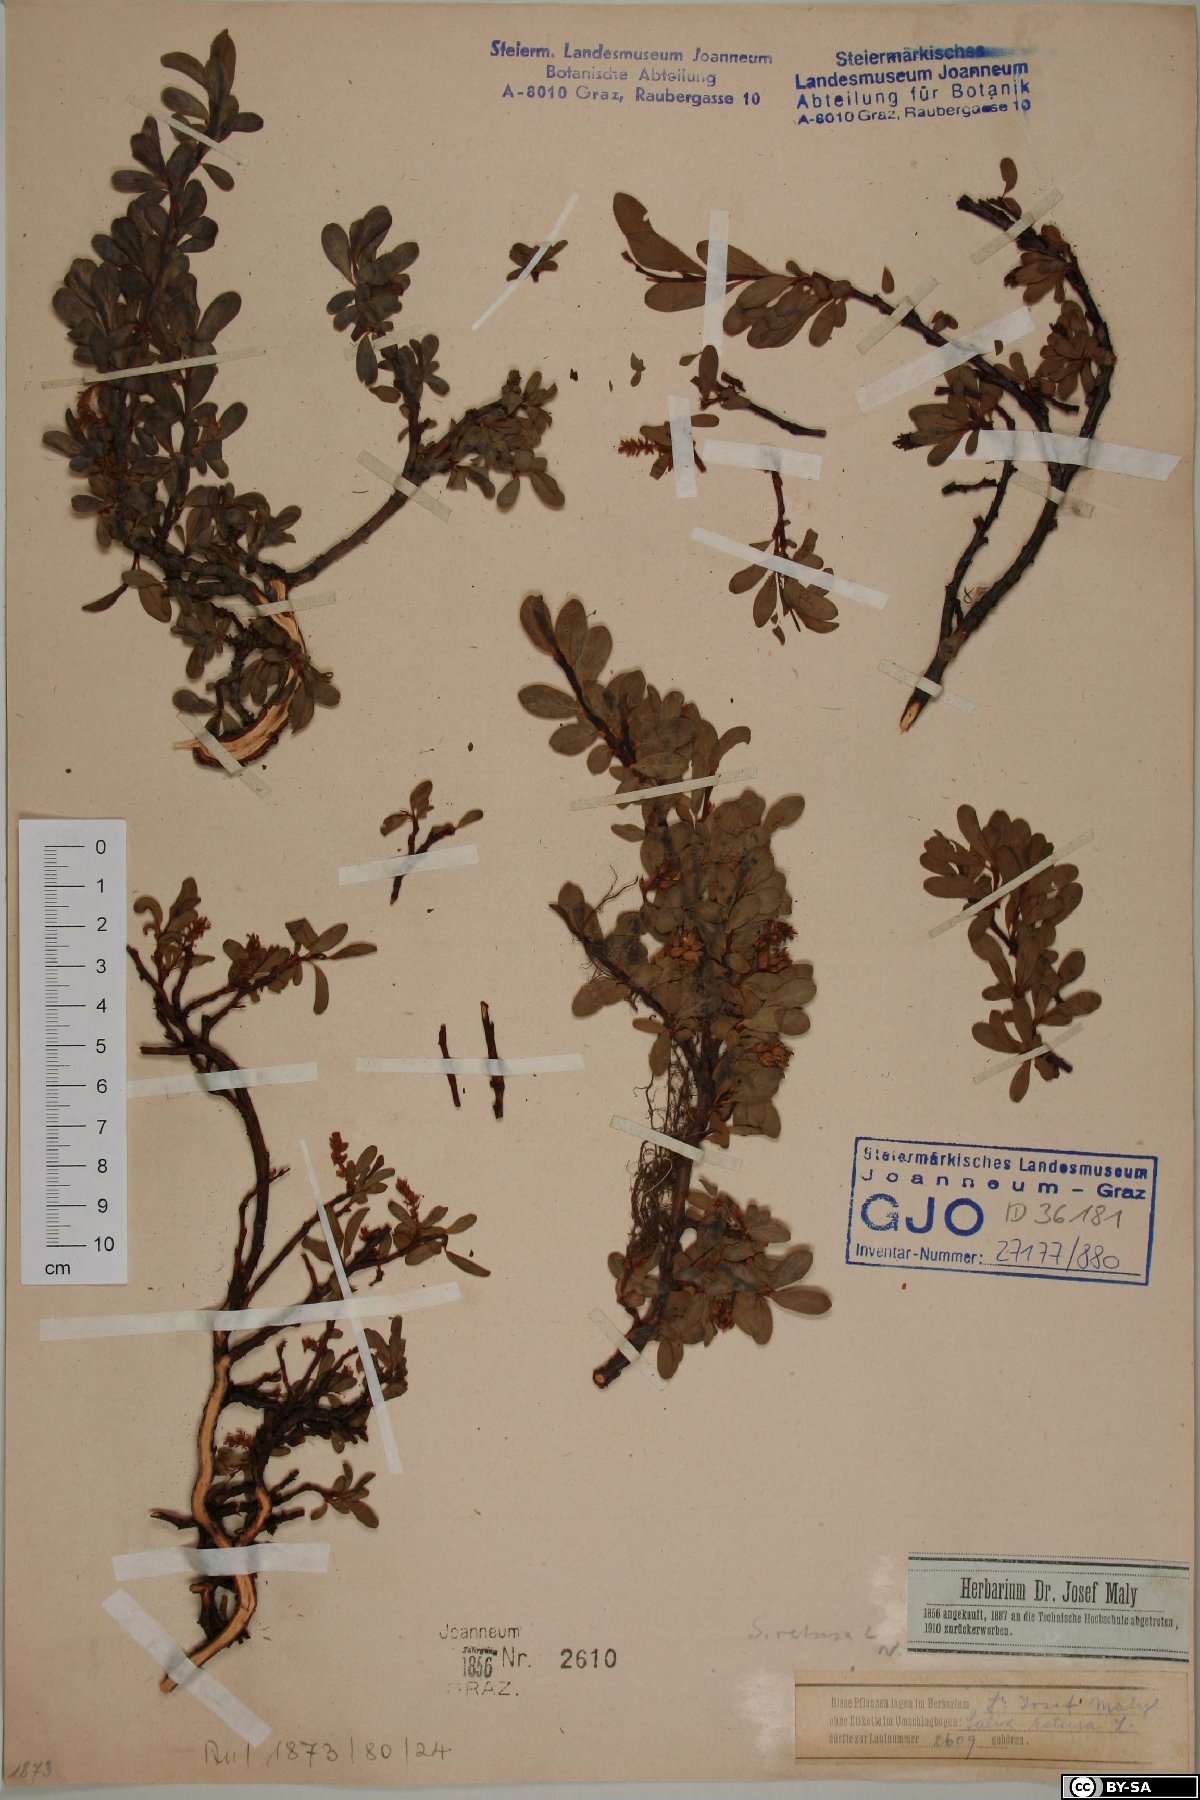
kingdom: Plantae
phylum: Tracheophyta
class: Magnoliopsida
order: Malpighiales
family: Salicaceae
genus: Salix
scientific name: Salix retusa
